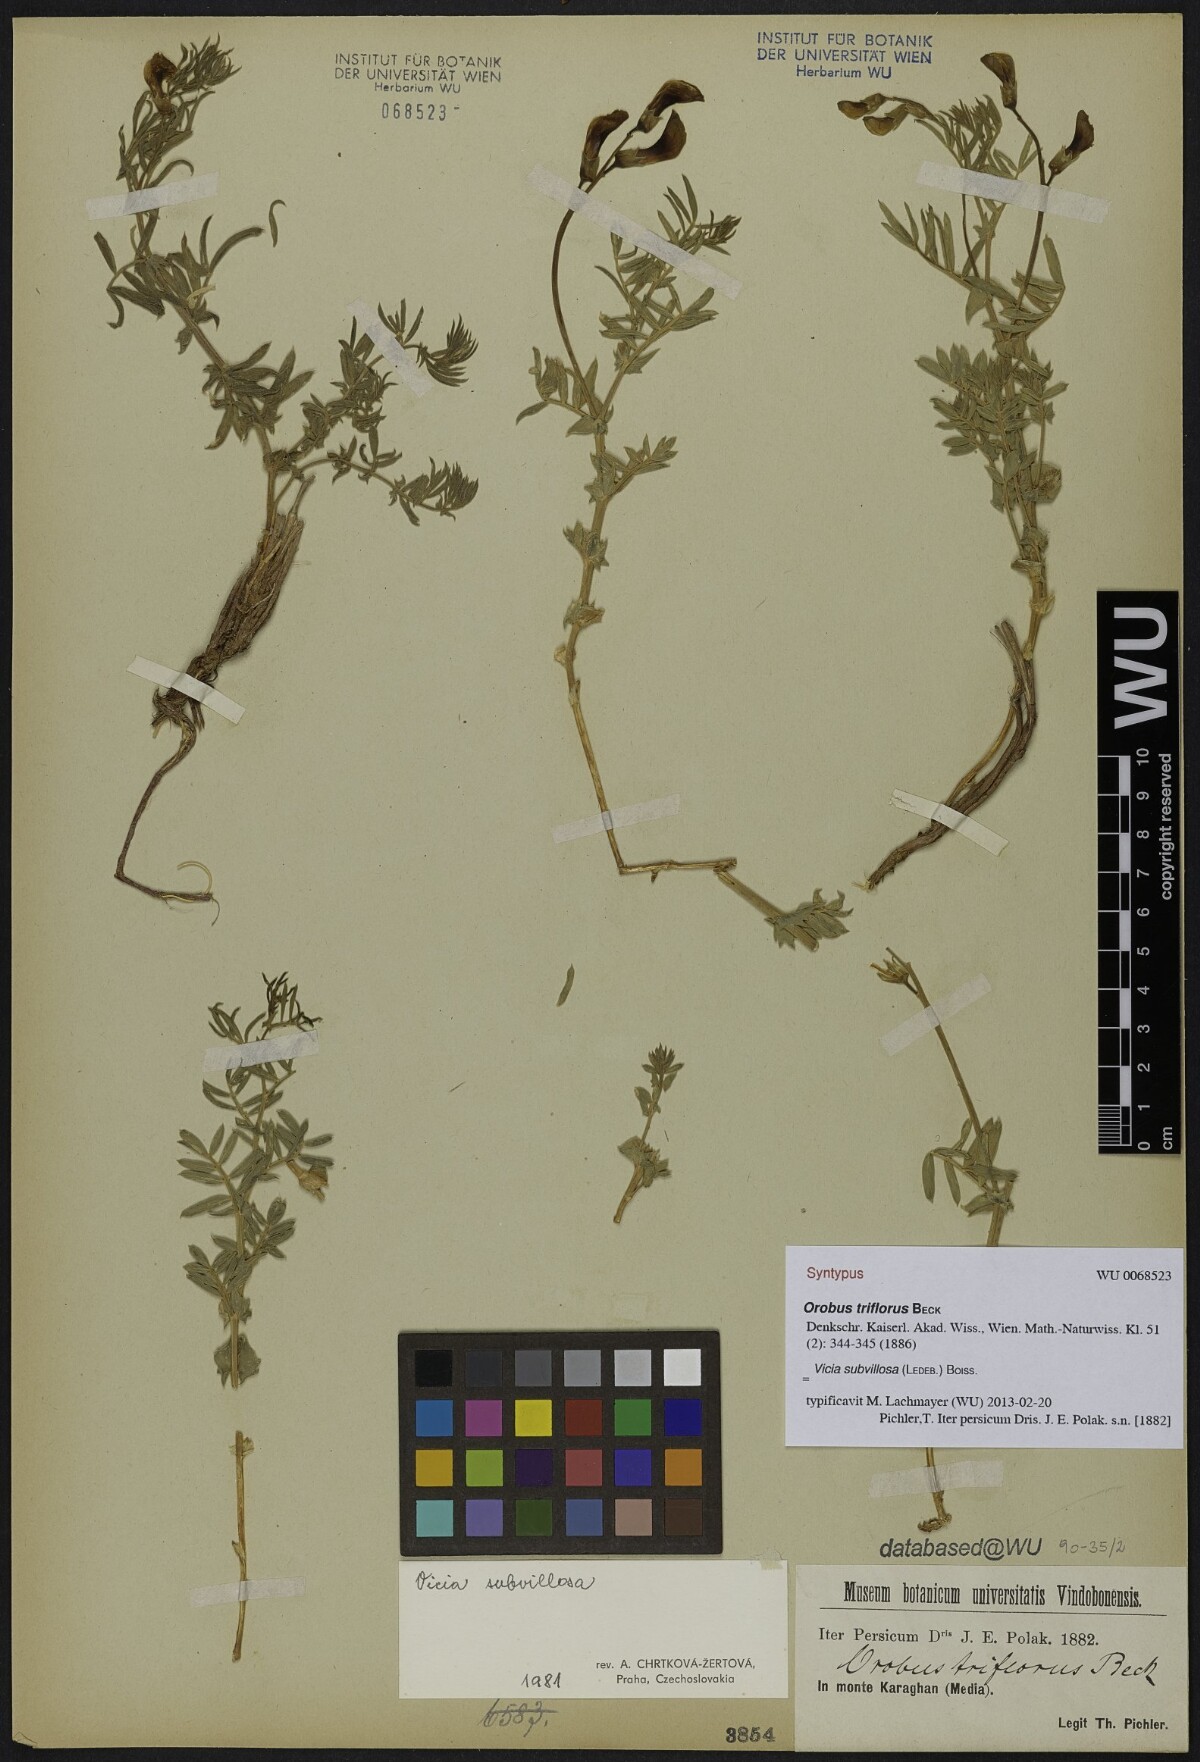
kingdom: Plantae
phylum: Tracheophyta
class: Magnoliopsida
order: Fabales
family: Fabaceae
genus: Vicia
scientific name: Vicia subvillosa
